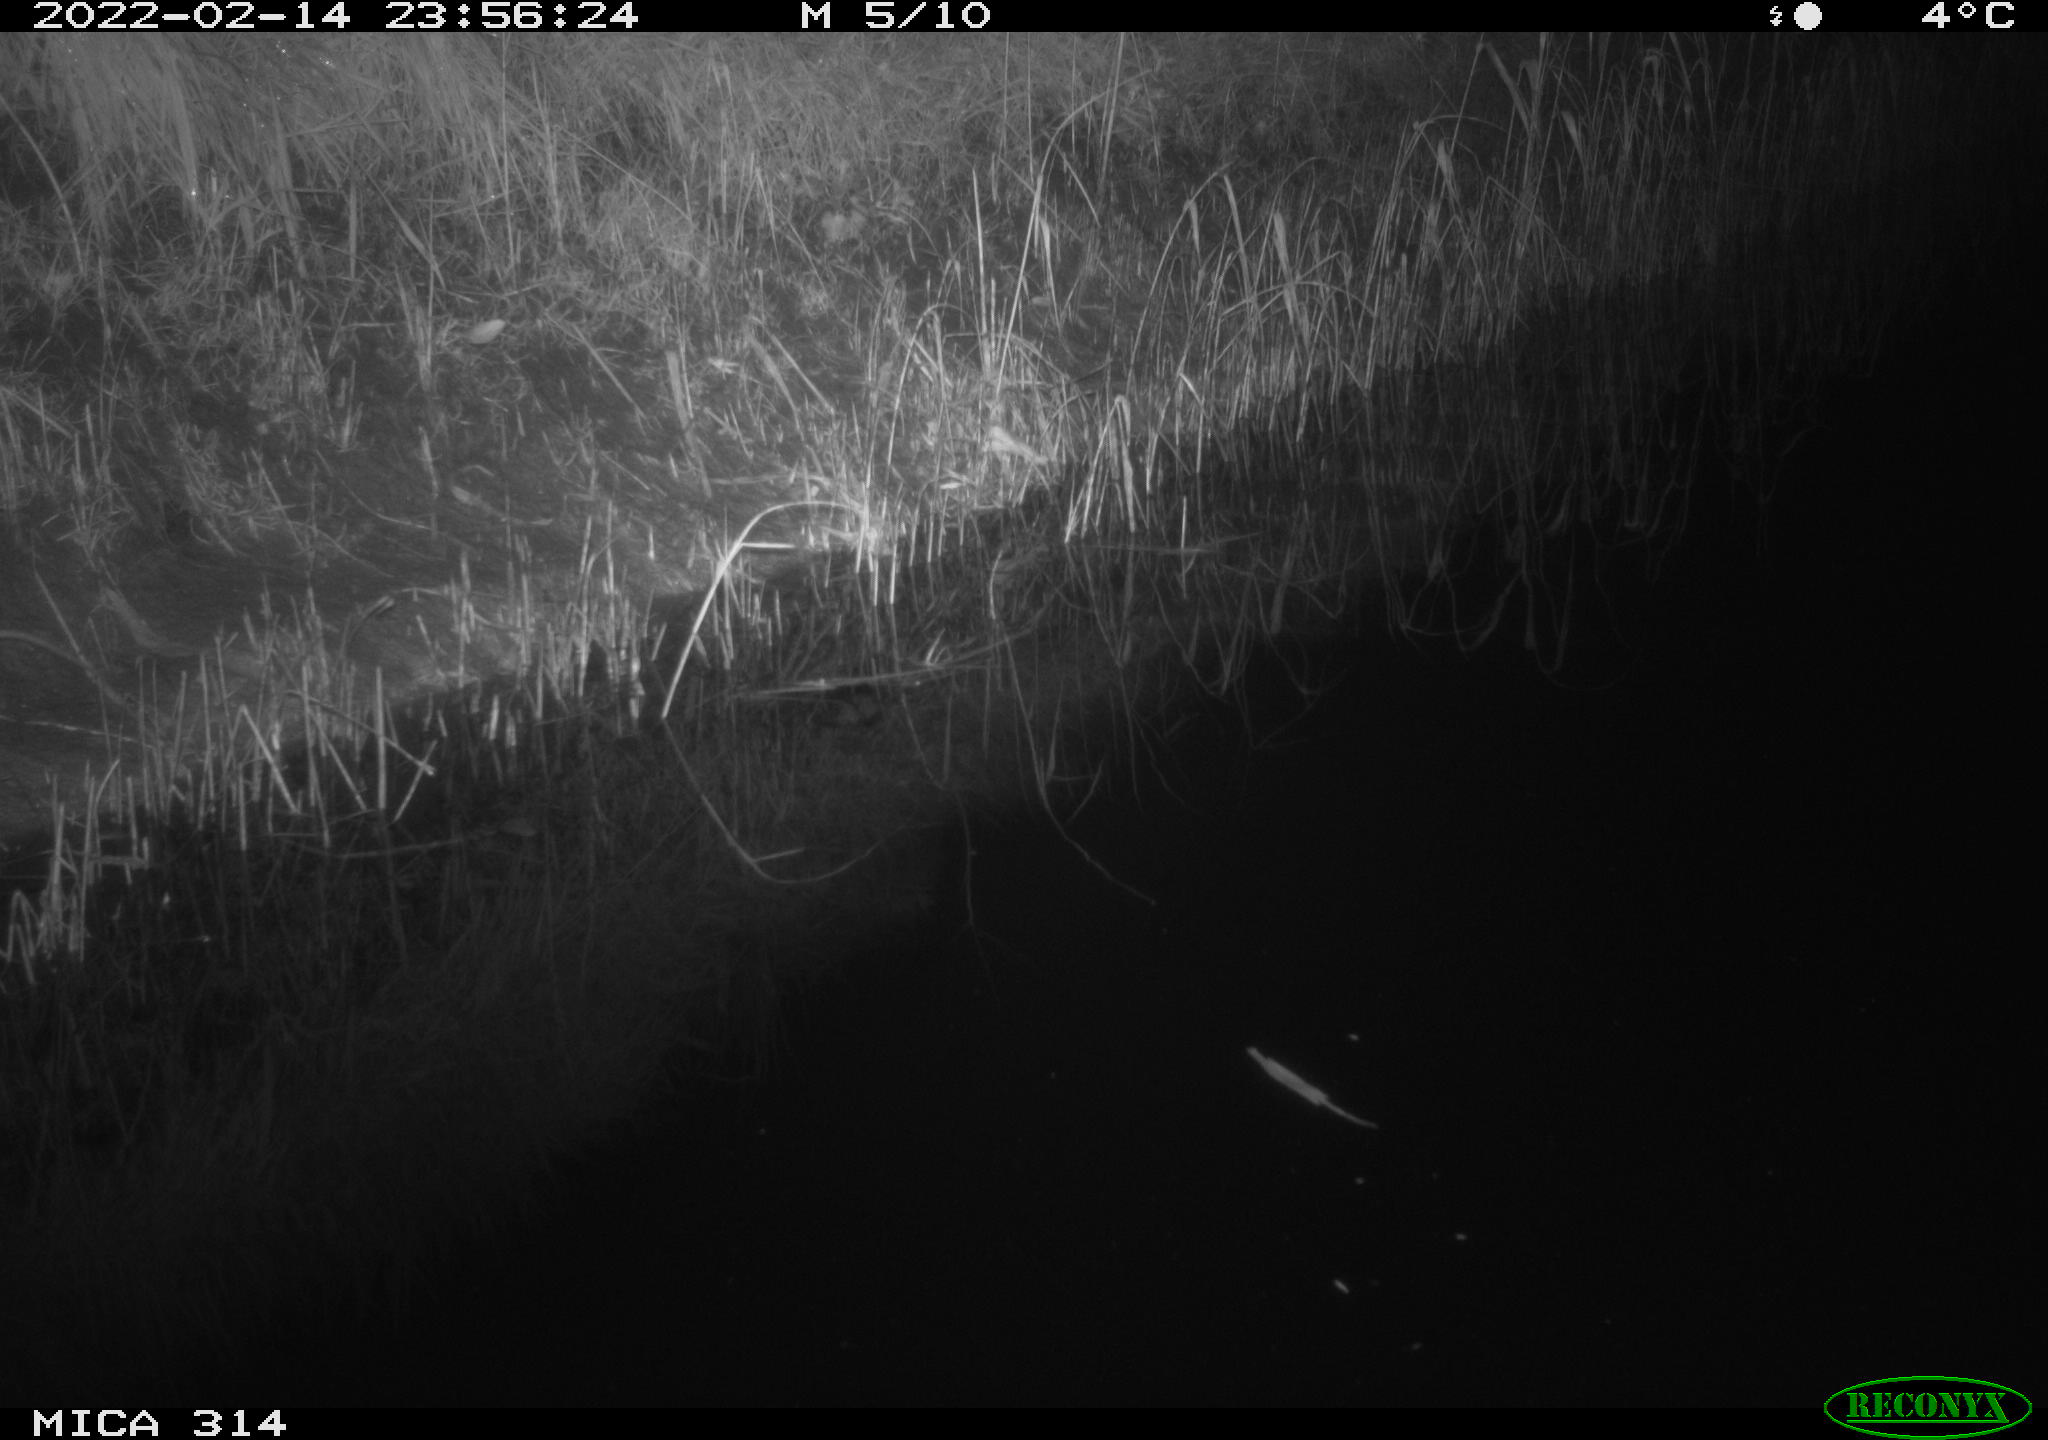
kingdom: Animalia
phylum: Chordata
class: Mammalia
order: Rodentia
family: Muridae
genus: Rattus
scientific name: Rattus norvegicus
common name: Brown rat
